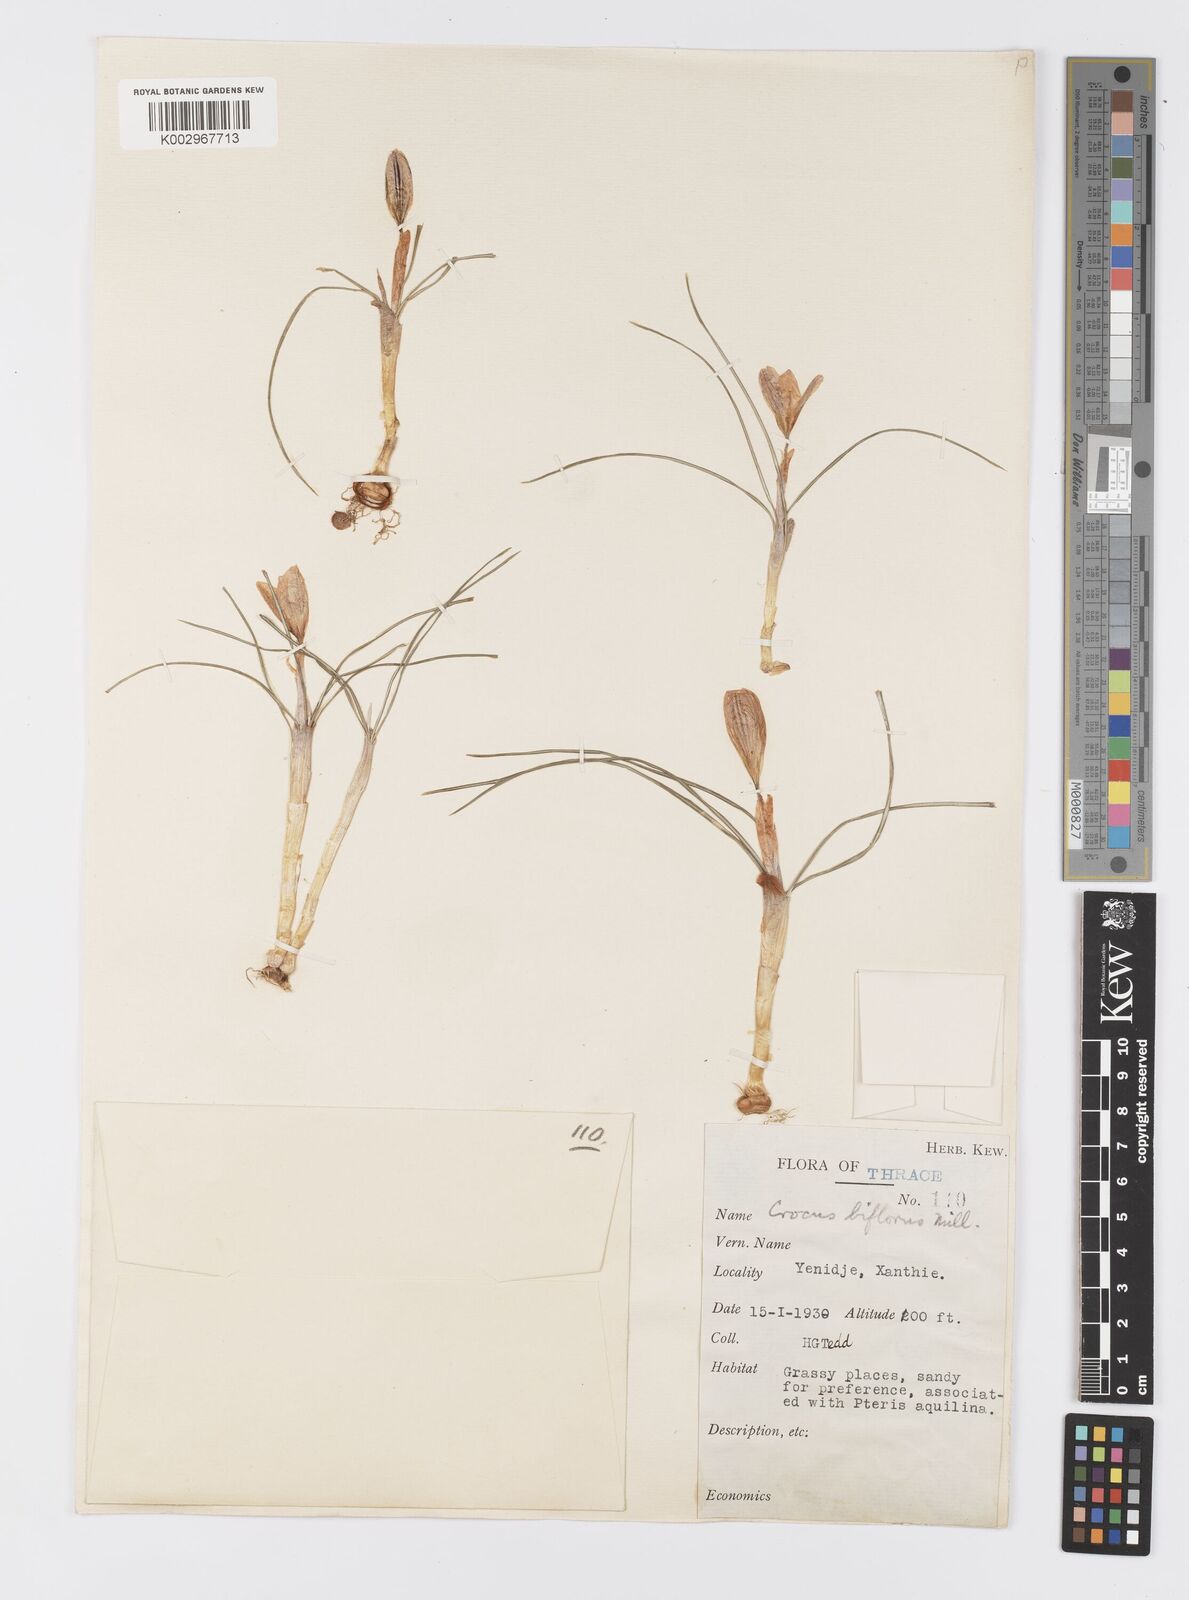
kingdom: Plantae
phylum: Tracheophyta
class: Liliopsida
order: Asparagales
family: Iridaceae
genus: Crocus
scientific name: Crocus stridii
